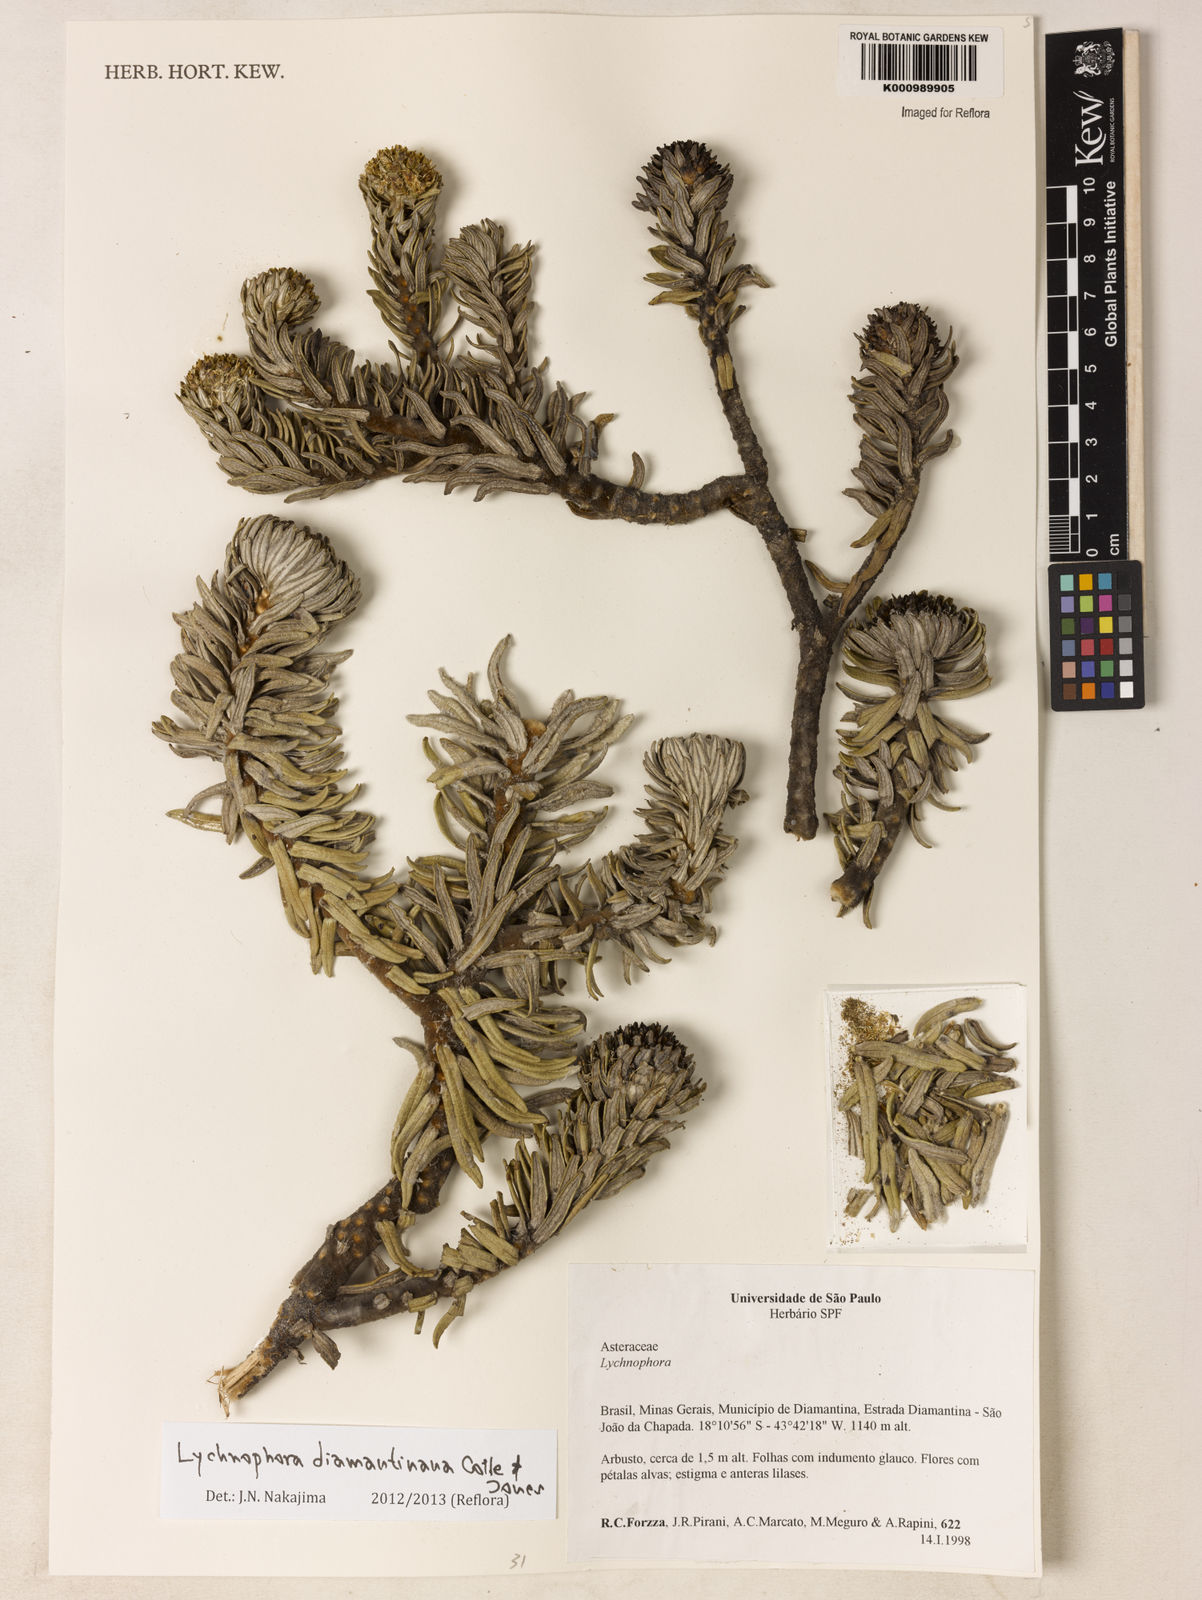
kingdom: Plantae
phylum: Tracheophyta
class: Magnoliopsida
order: Asterales
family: Asteraceae
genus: Lychnophora
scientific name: Lychnophora diamantinana
